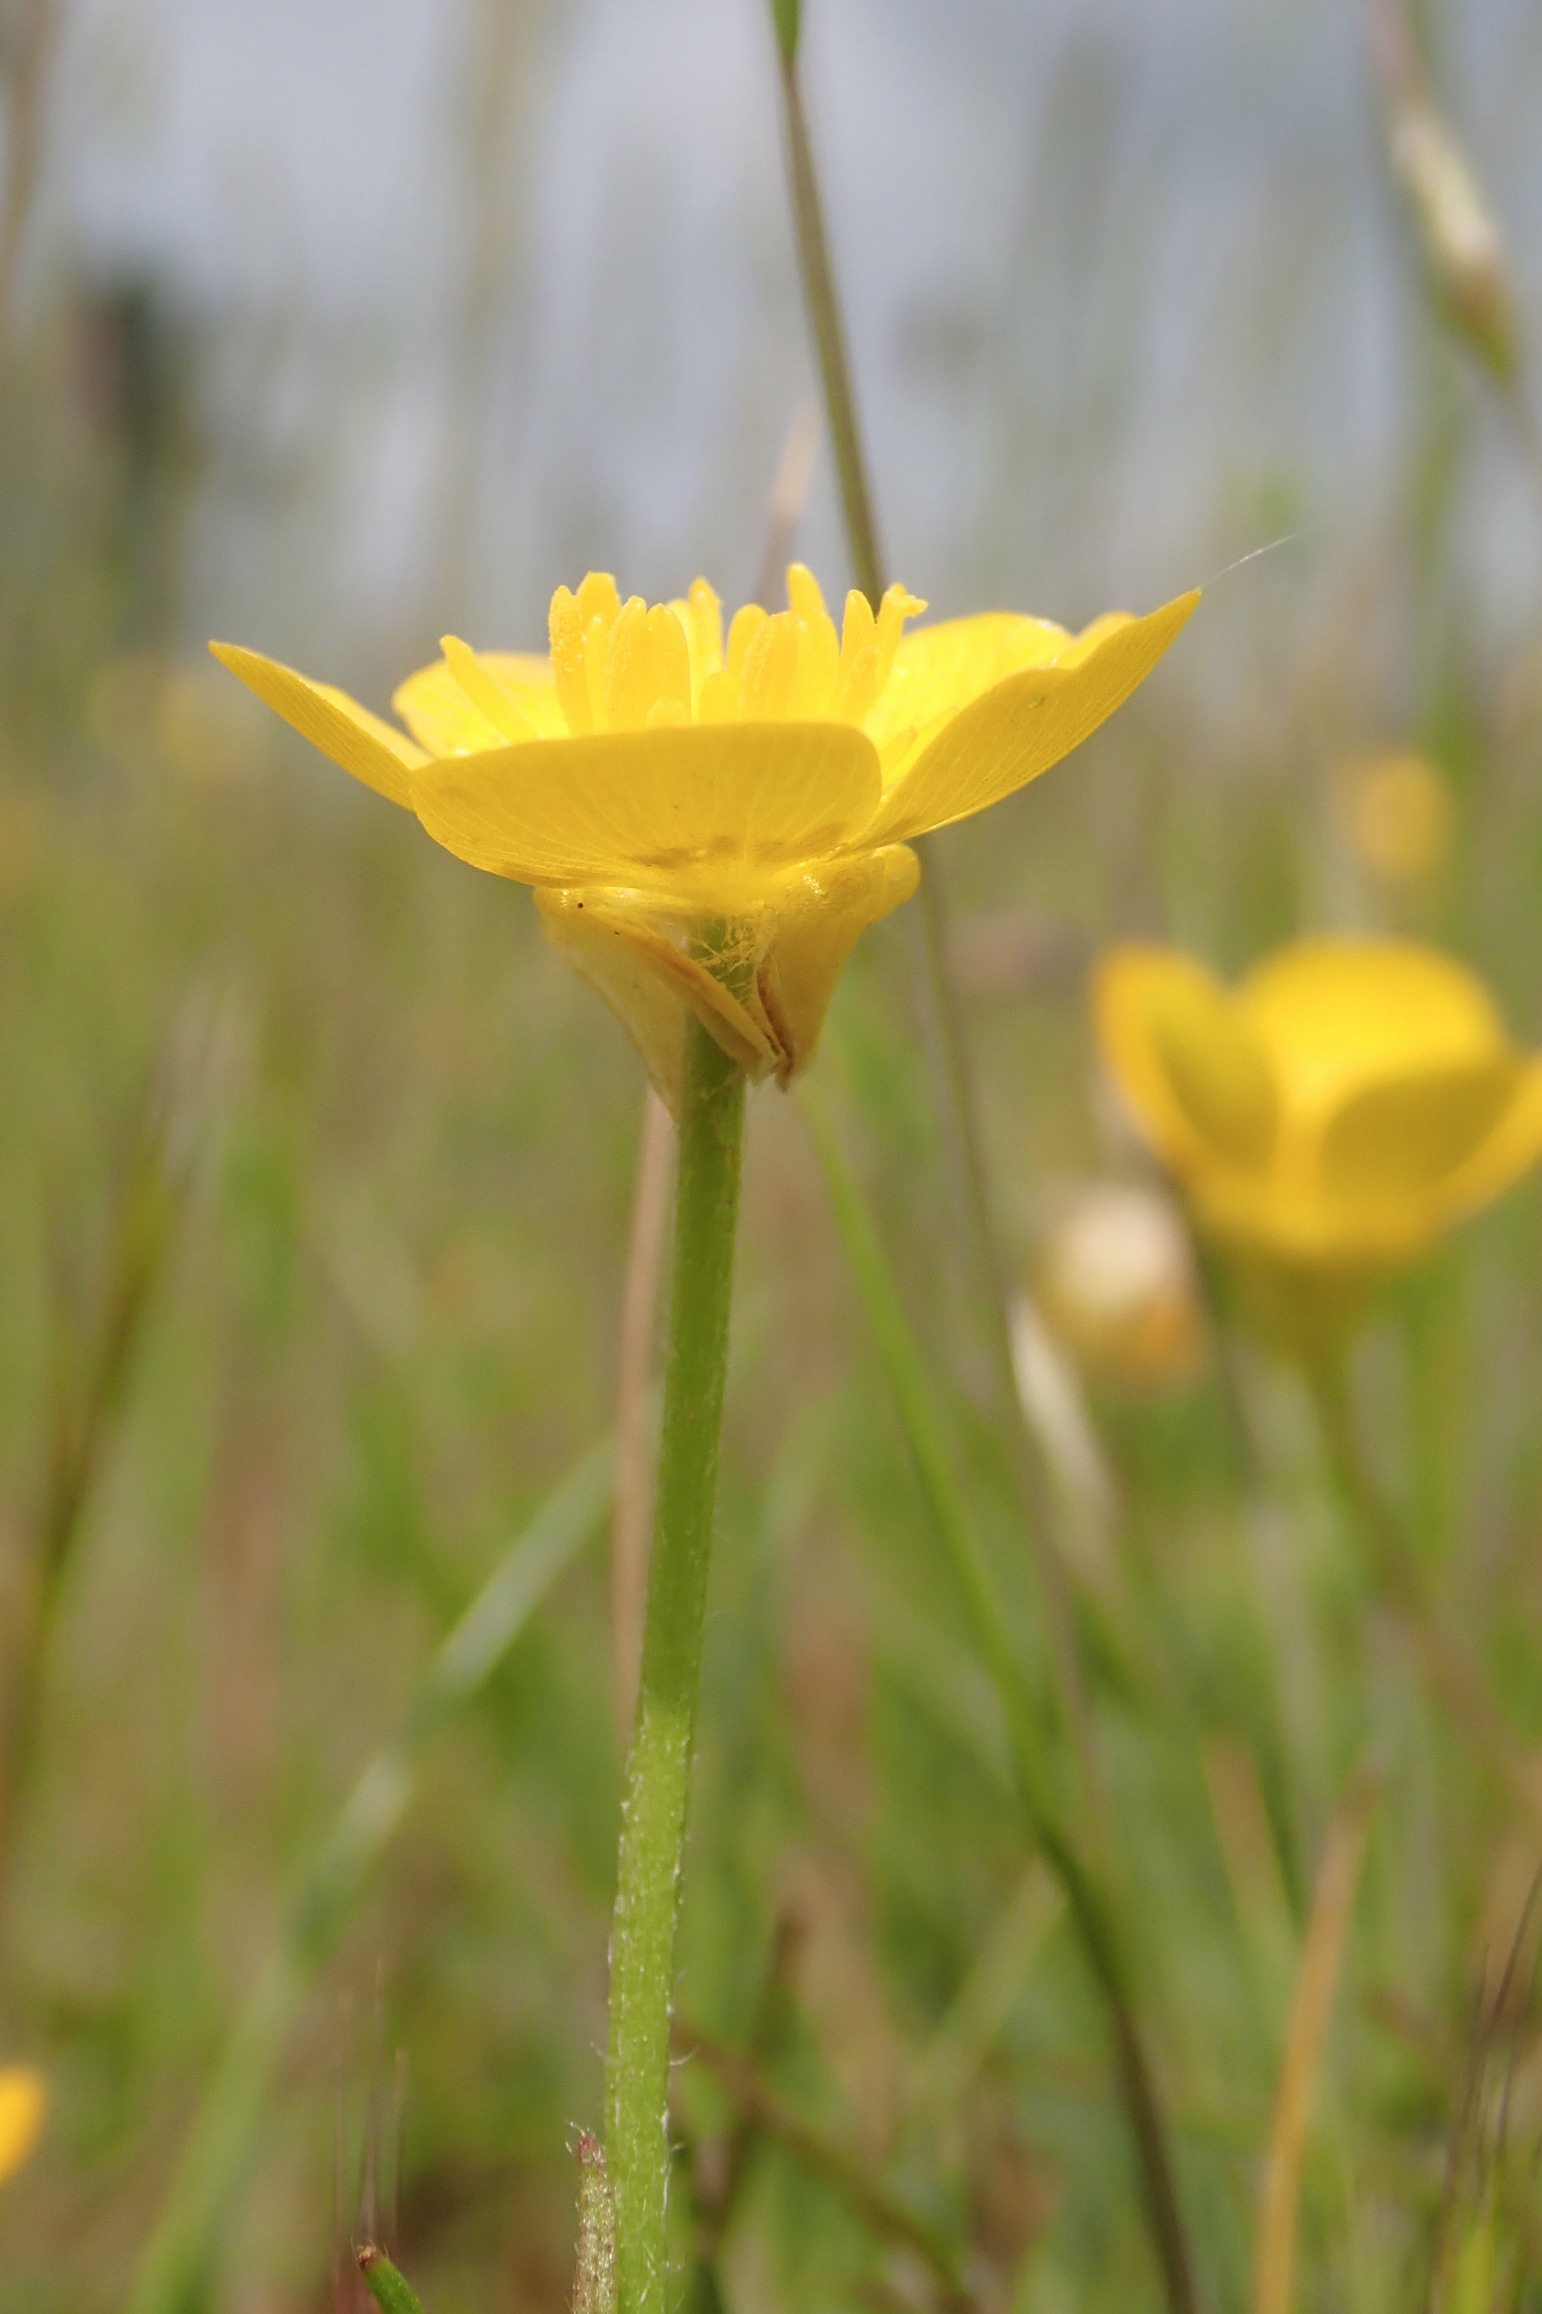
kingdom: Plantae
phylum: Tracheophyta
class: Magnoliopsida
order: Ranunculales
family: Ranunculaceae
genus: Ranunculus
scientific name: Ranunculus bulbosus
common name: Knold-ranunkel
